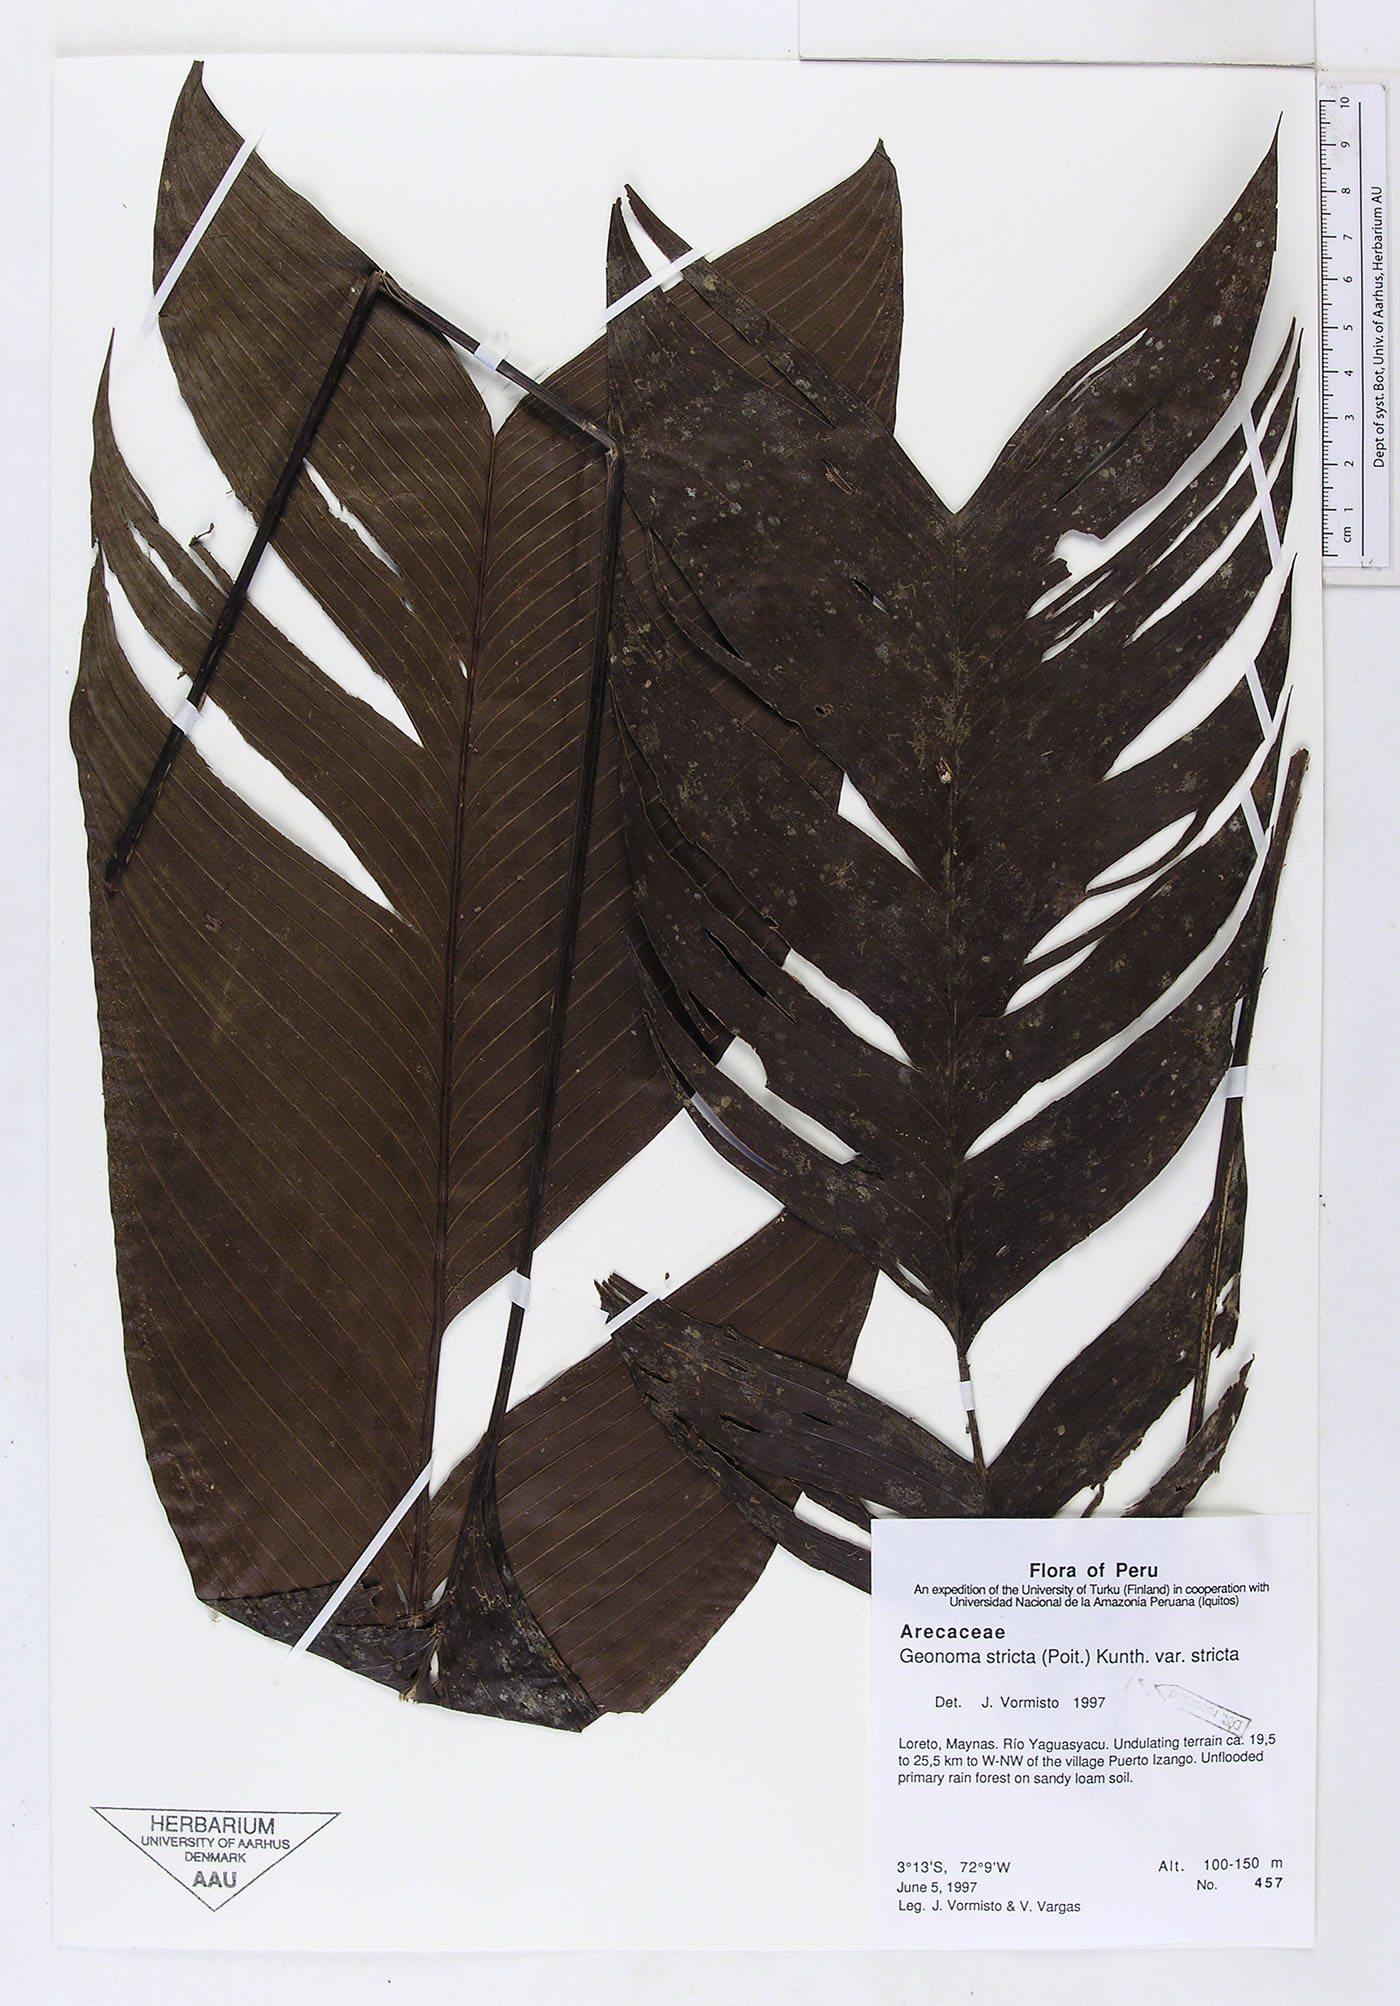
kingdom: Plantae
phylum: Tracheophyta
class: Liliopsida
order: Arecales
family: Arecaceae
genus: Geonoma
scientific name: Geonoma stricta
